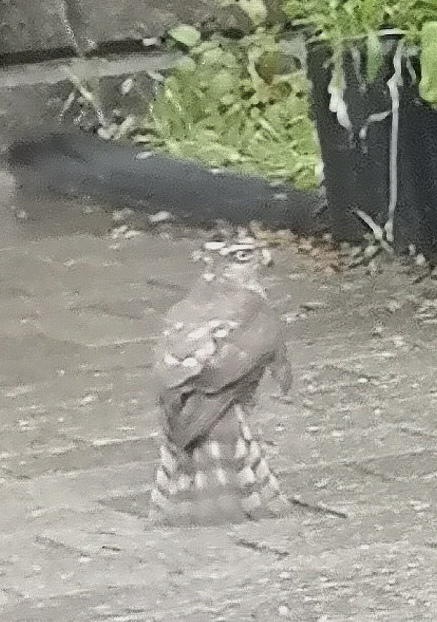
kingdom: Animalia
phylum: Chordata
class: Aves
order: Accipitriformes
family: Accipitridae
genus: Accipiter
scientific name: Accipiter nisus
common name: Spurvehøg
